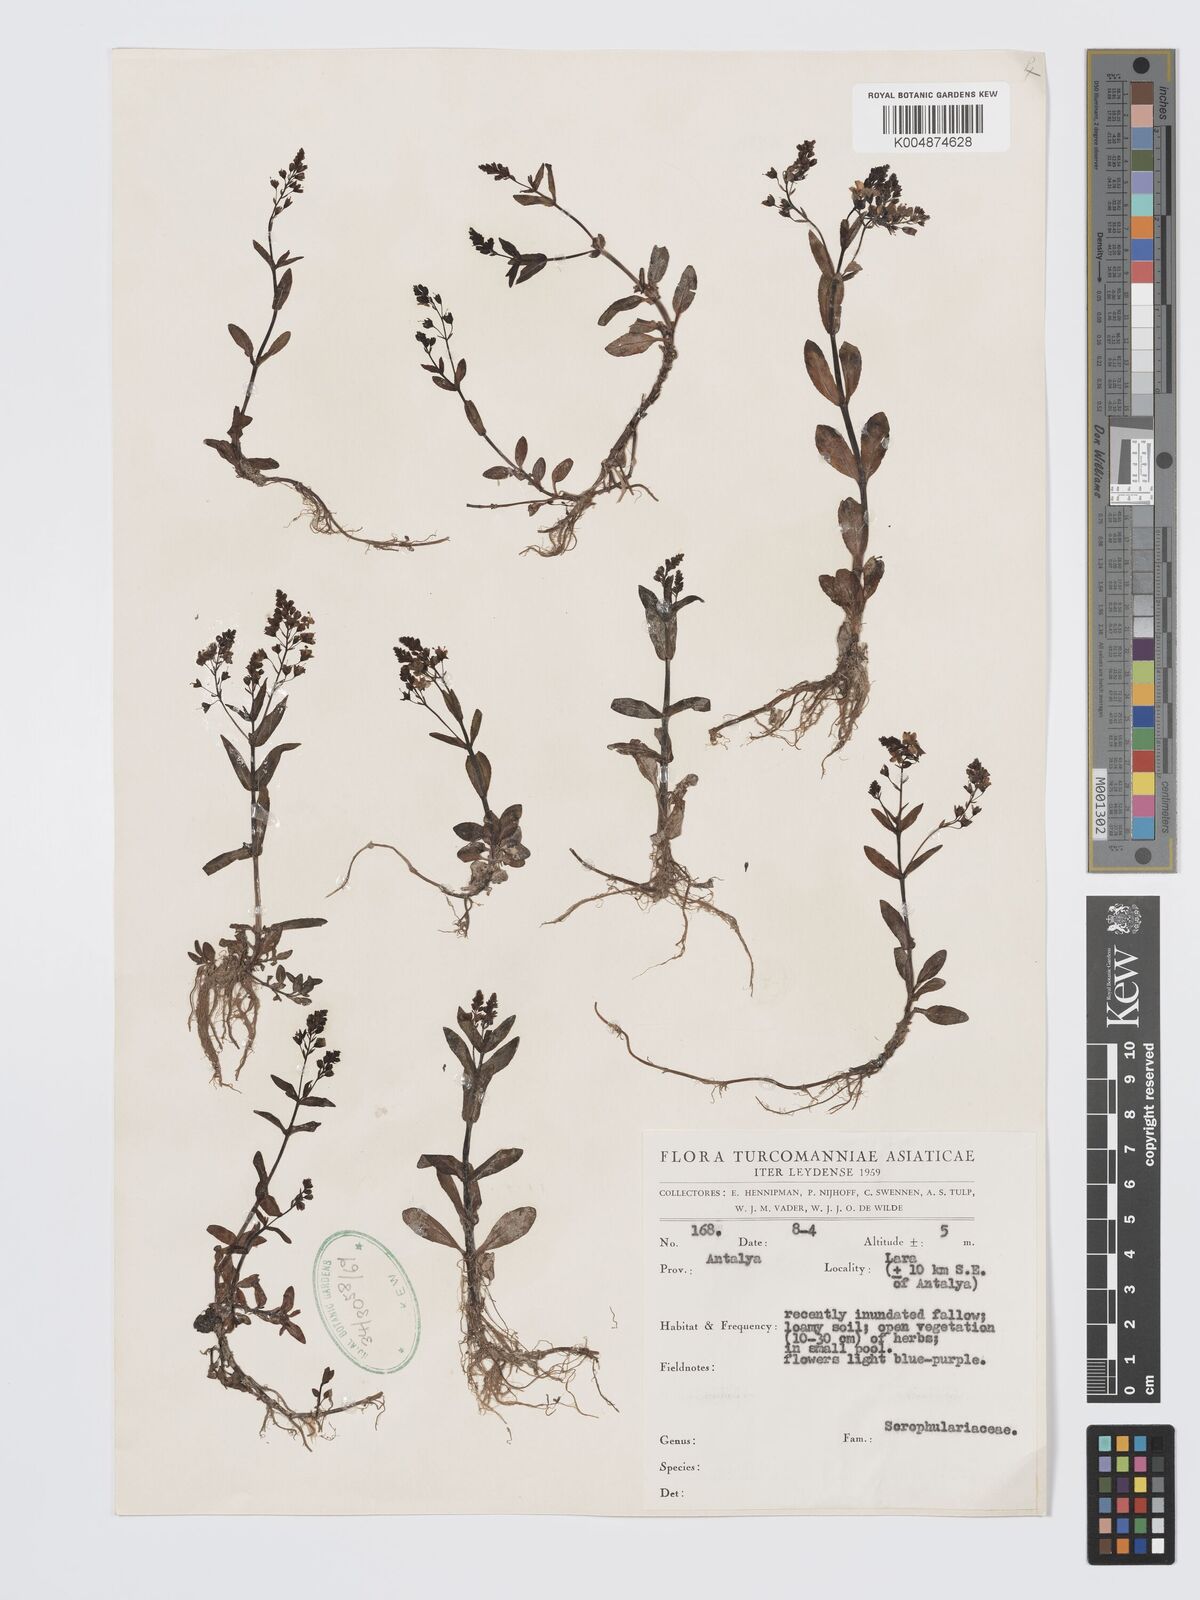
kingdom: Plantae
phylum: Tracheophyta
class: Magnoliopsida
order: Lamiales
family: Plantaginaceae
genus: Veronica
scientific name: Veronica
